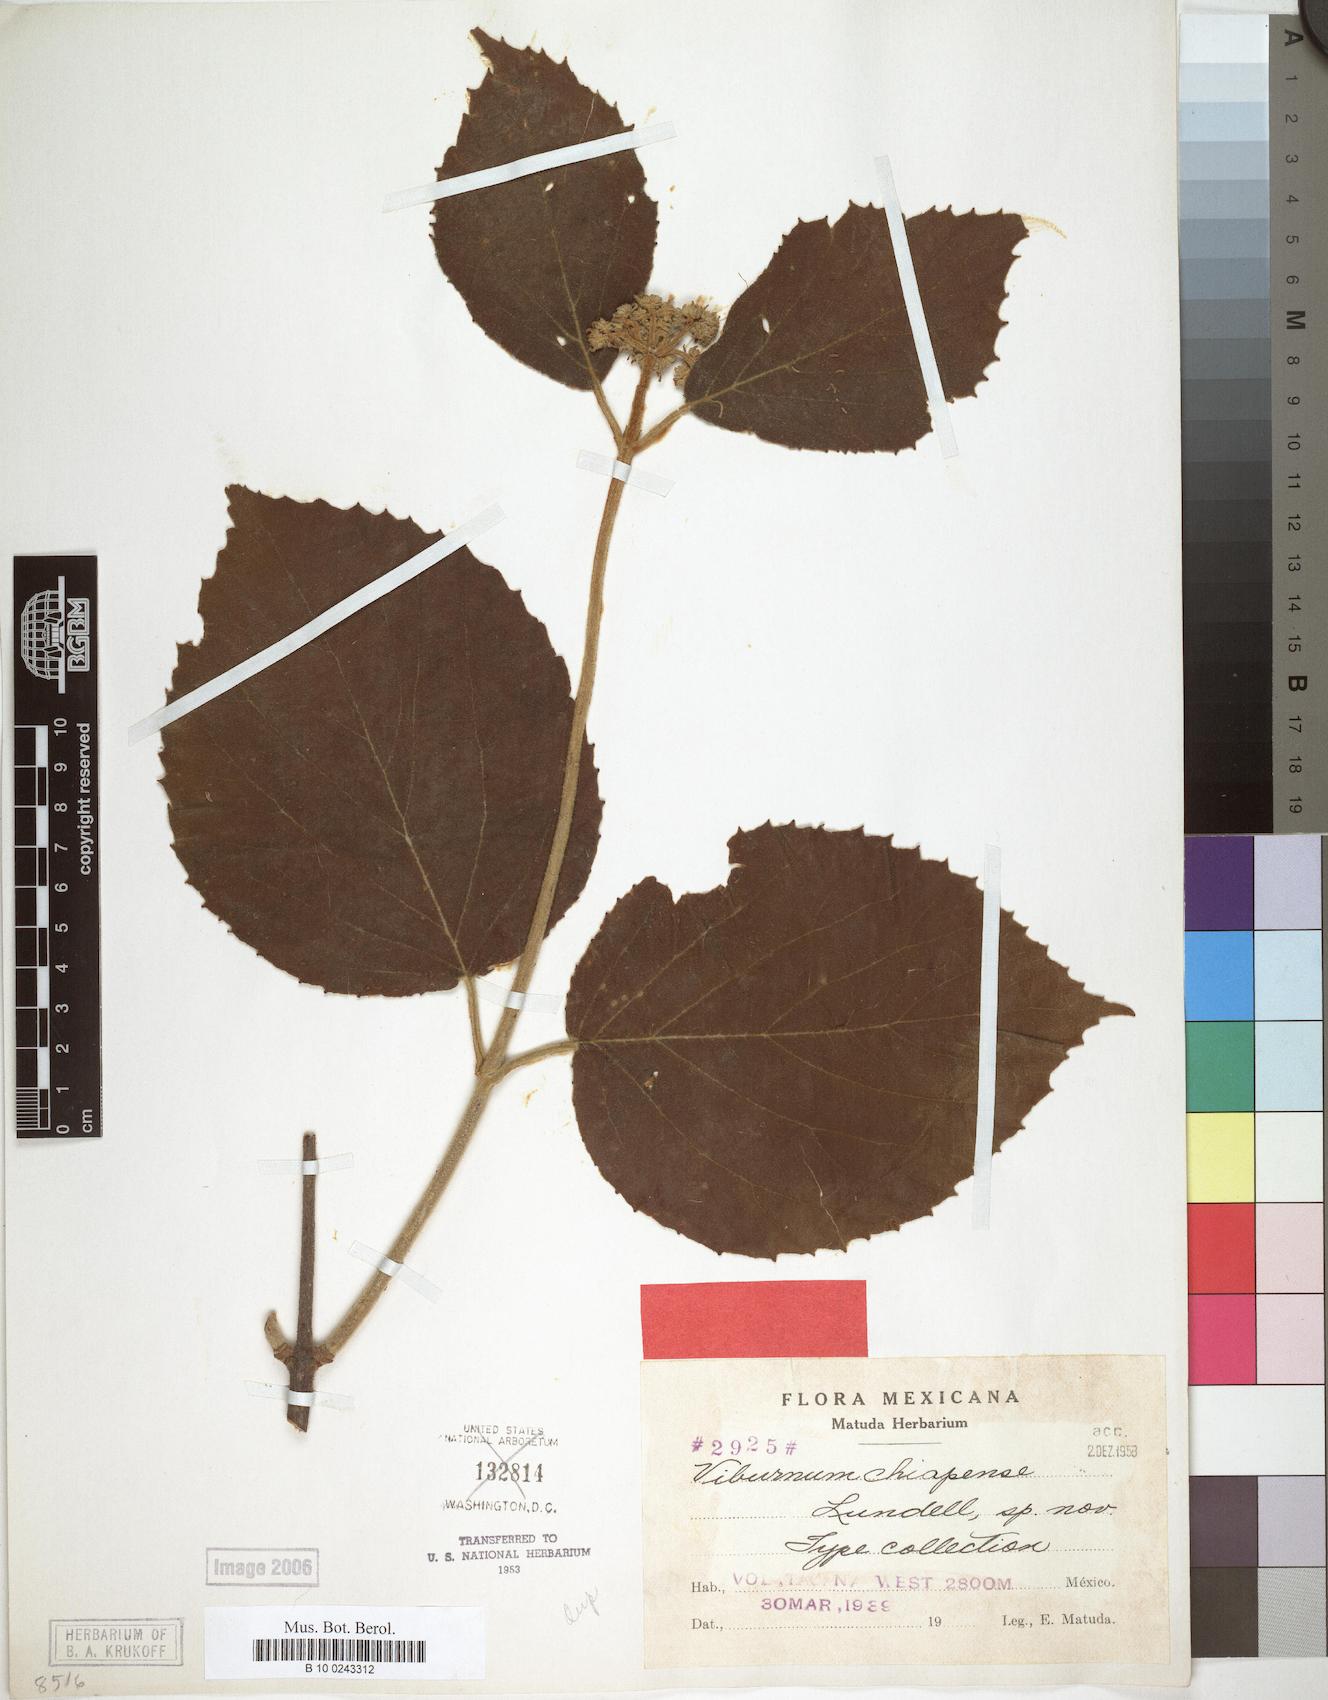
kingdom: Plantae
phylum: Tracheophyta
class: Magnoliopsida
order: Dipsacales
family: Viburnaceae
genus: Viburnum
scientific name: Viburnum jucundum
